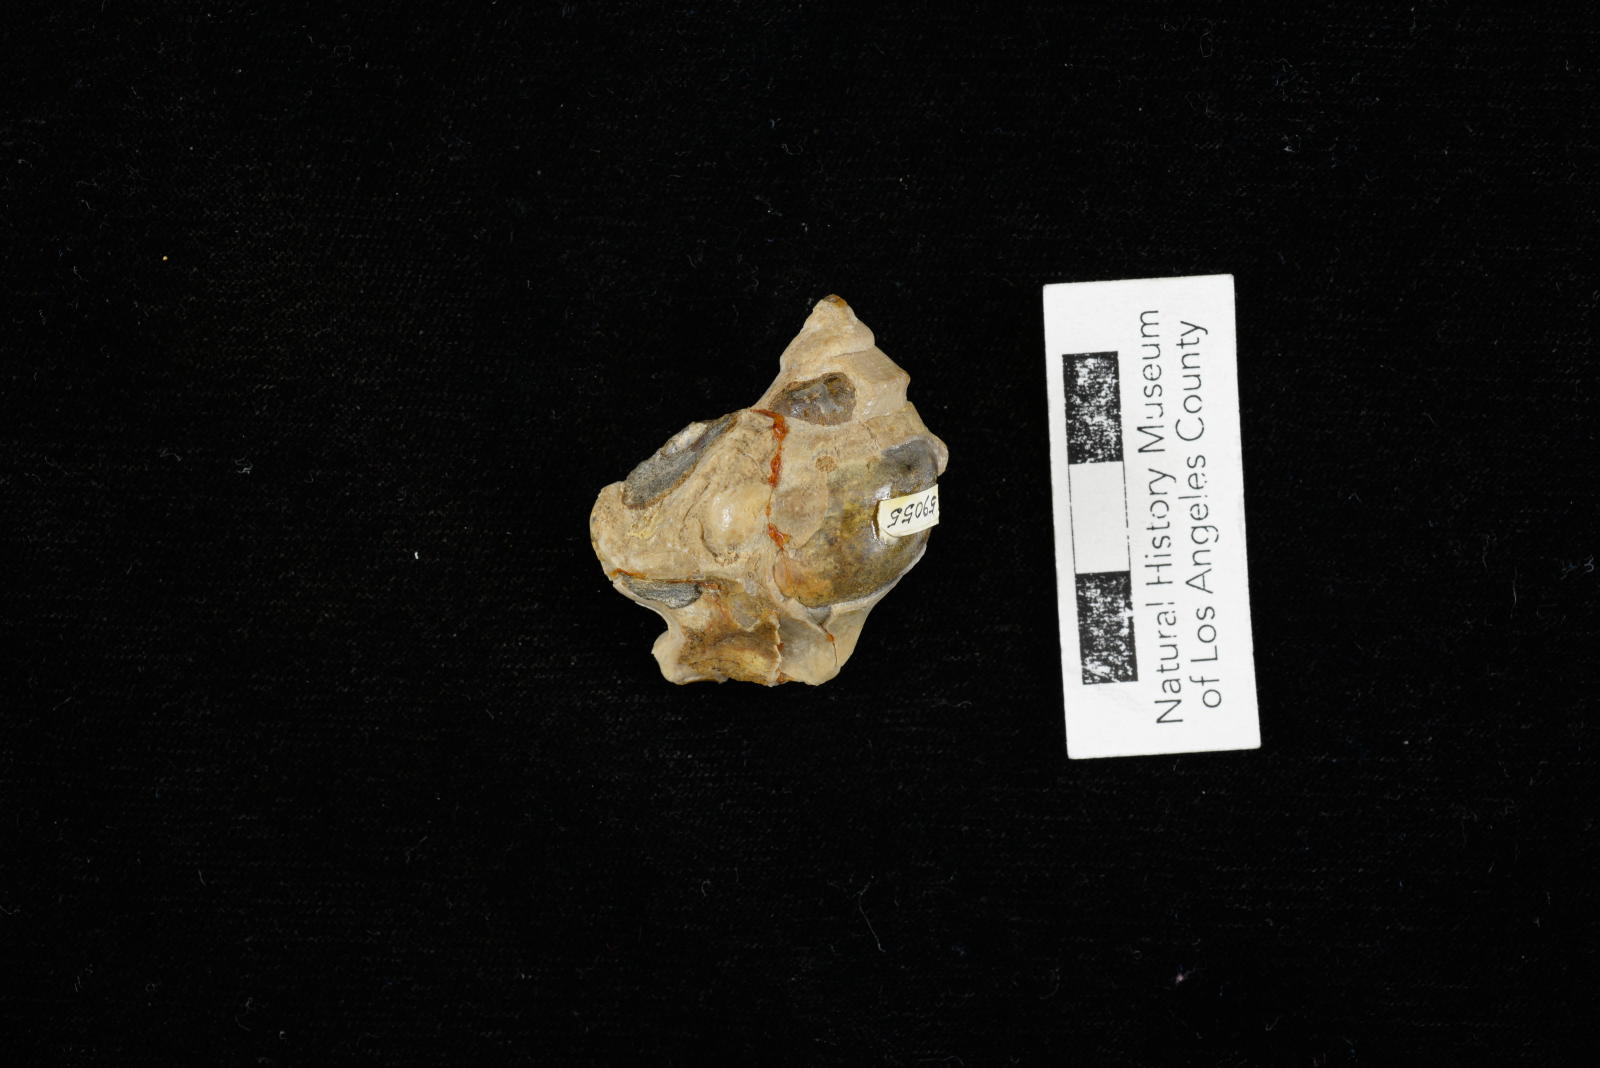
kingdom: Animalia
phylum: Mollusca
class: Gastropoda
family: Turritellidae
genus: Turritella
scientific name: Turritella chaneyi
